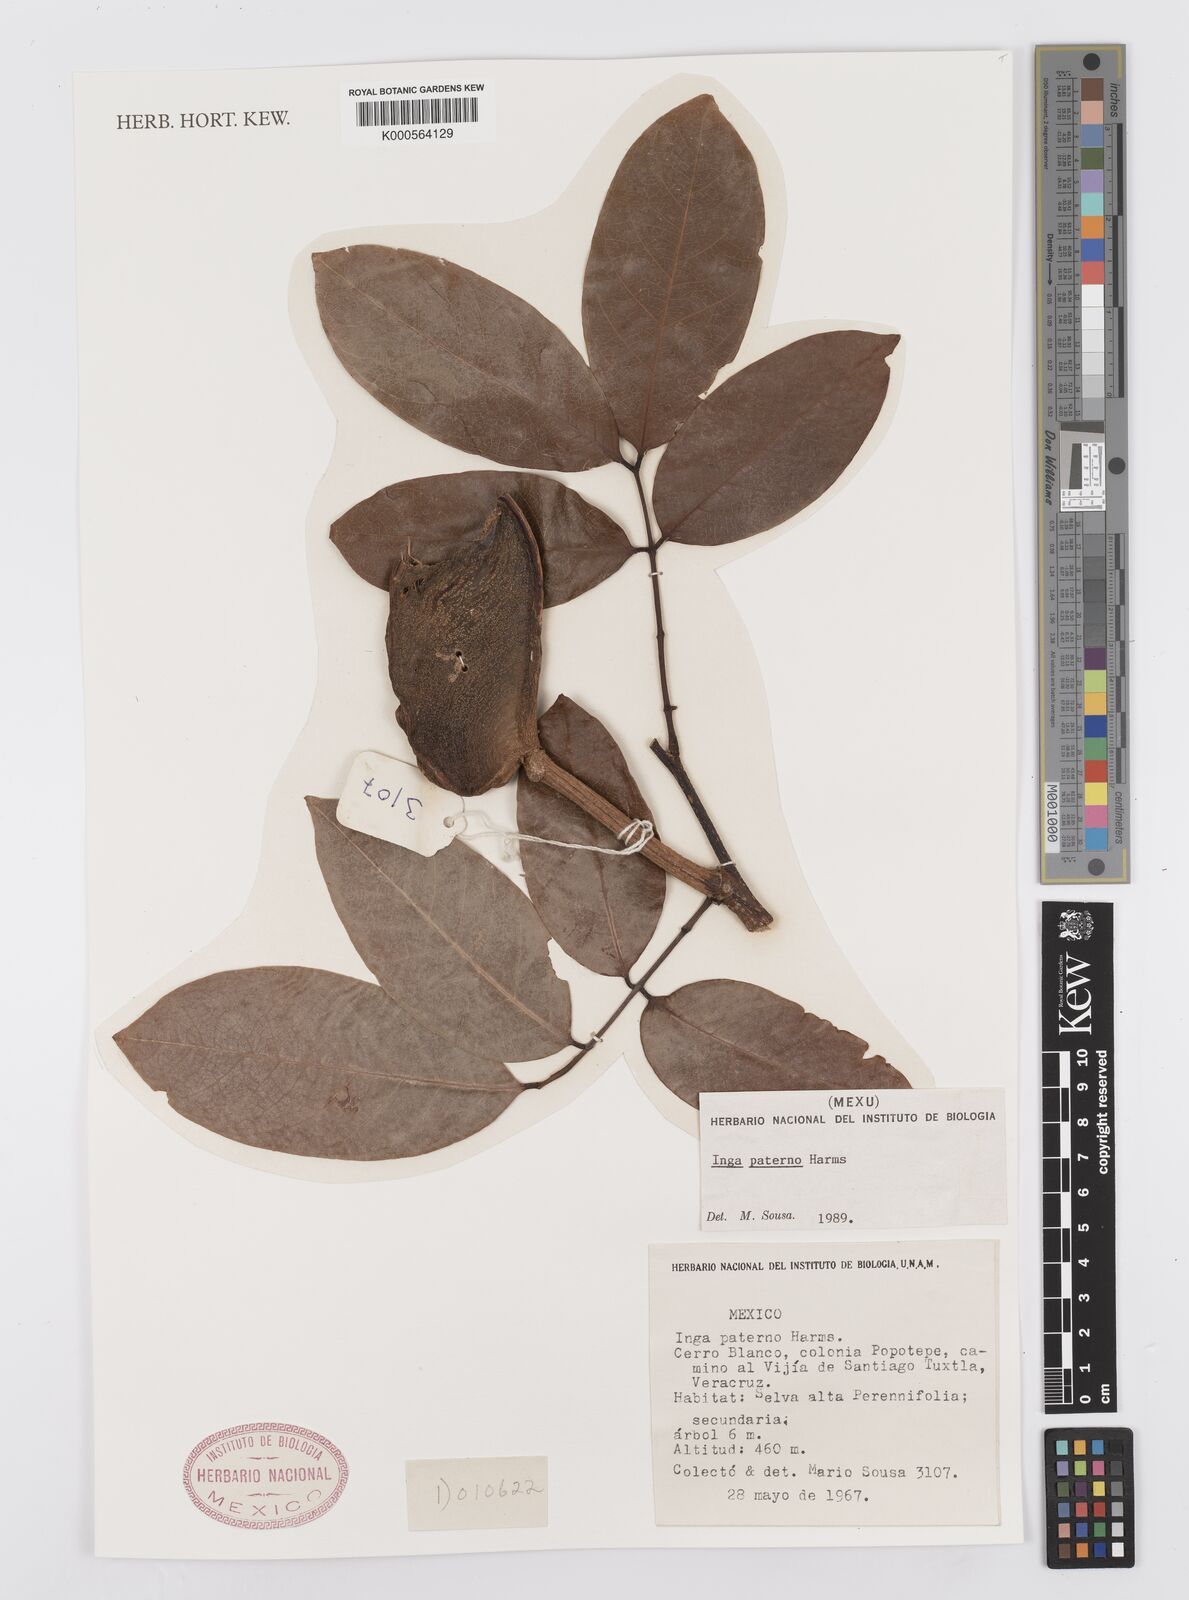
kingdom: Plantae
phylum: Tracheophyta
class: Magnoliopsida
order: Fabales
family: Fabaceae
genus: Inga
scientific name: Inga paterno
